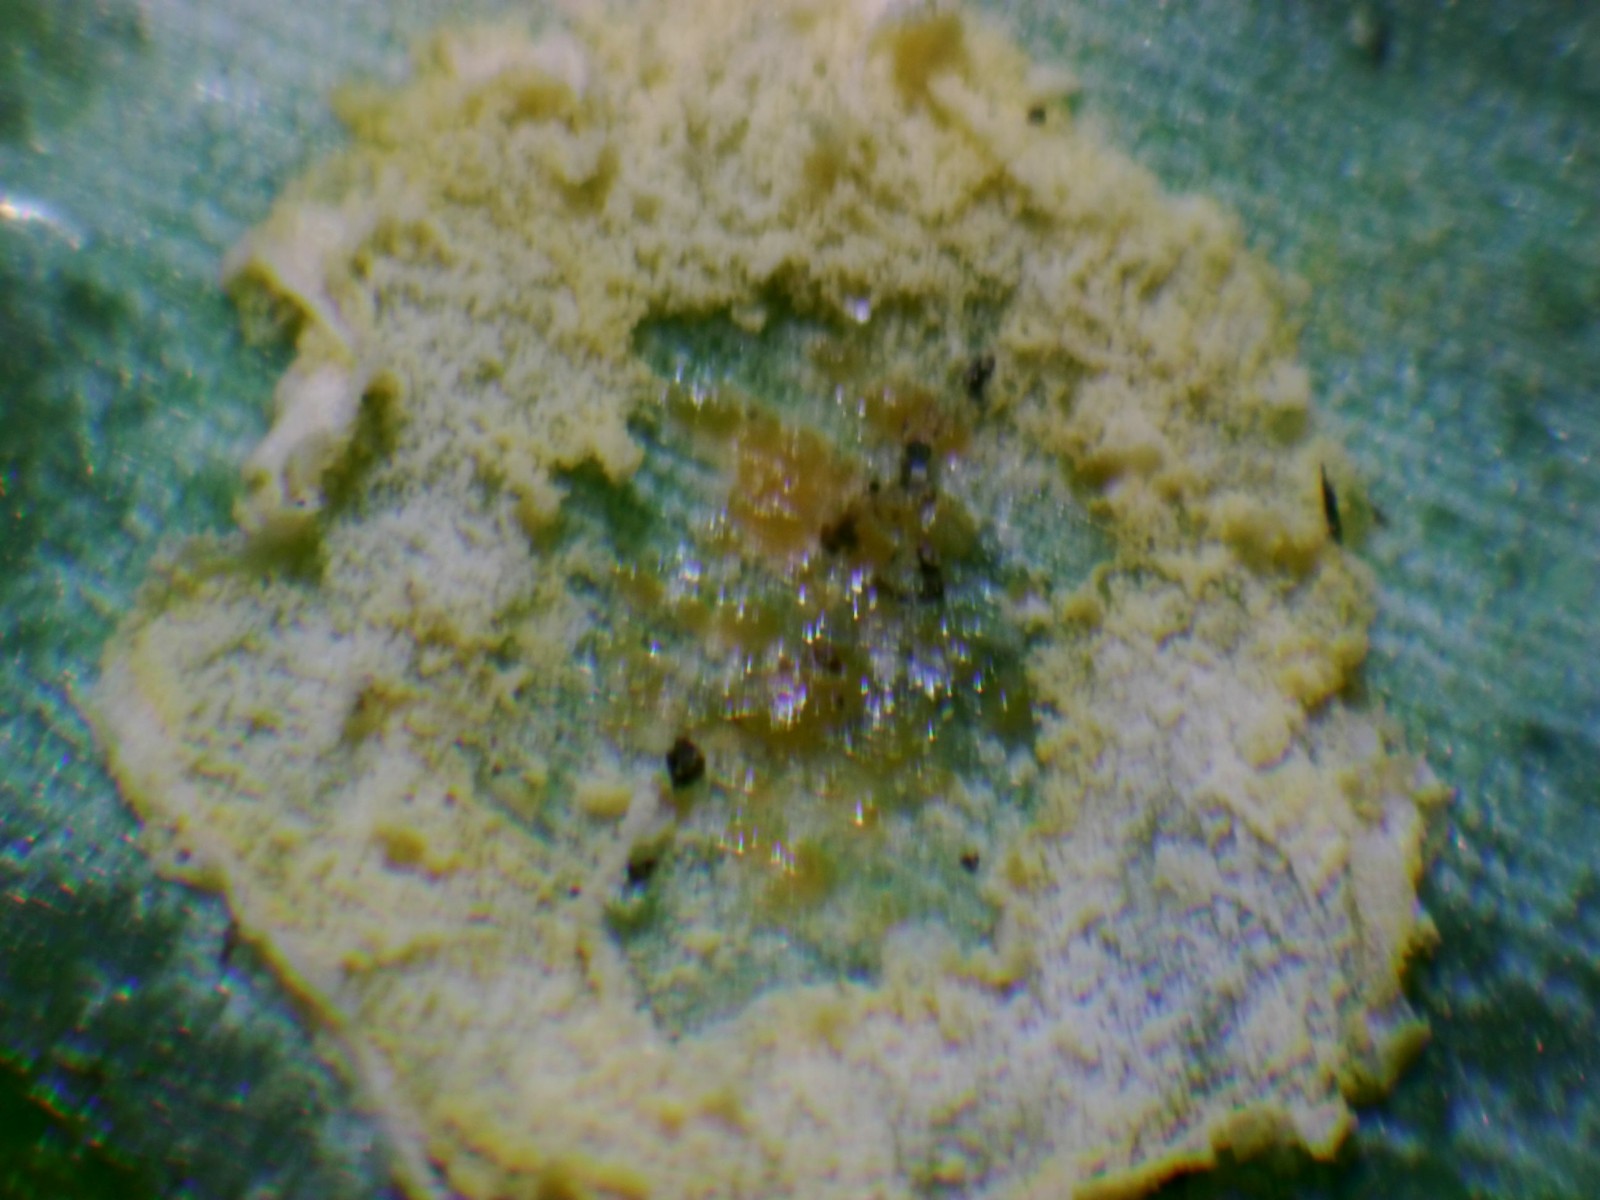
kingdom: Fungi
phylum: Basidiomycota
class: Pucciniomycetes
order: Pucciniales
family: Pucciniaceae
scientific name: Pucciniaceae
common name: rustsvampfamilien
